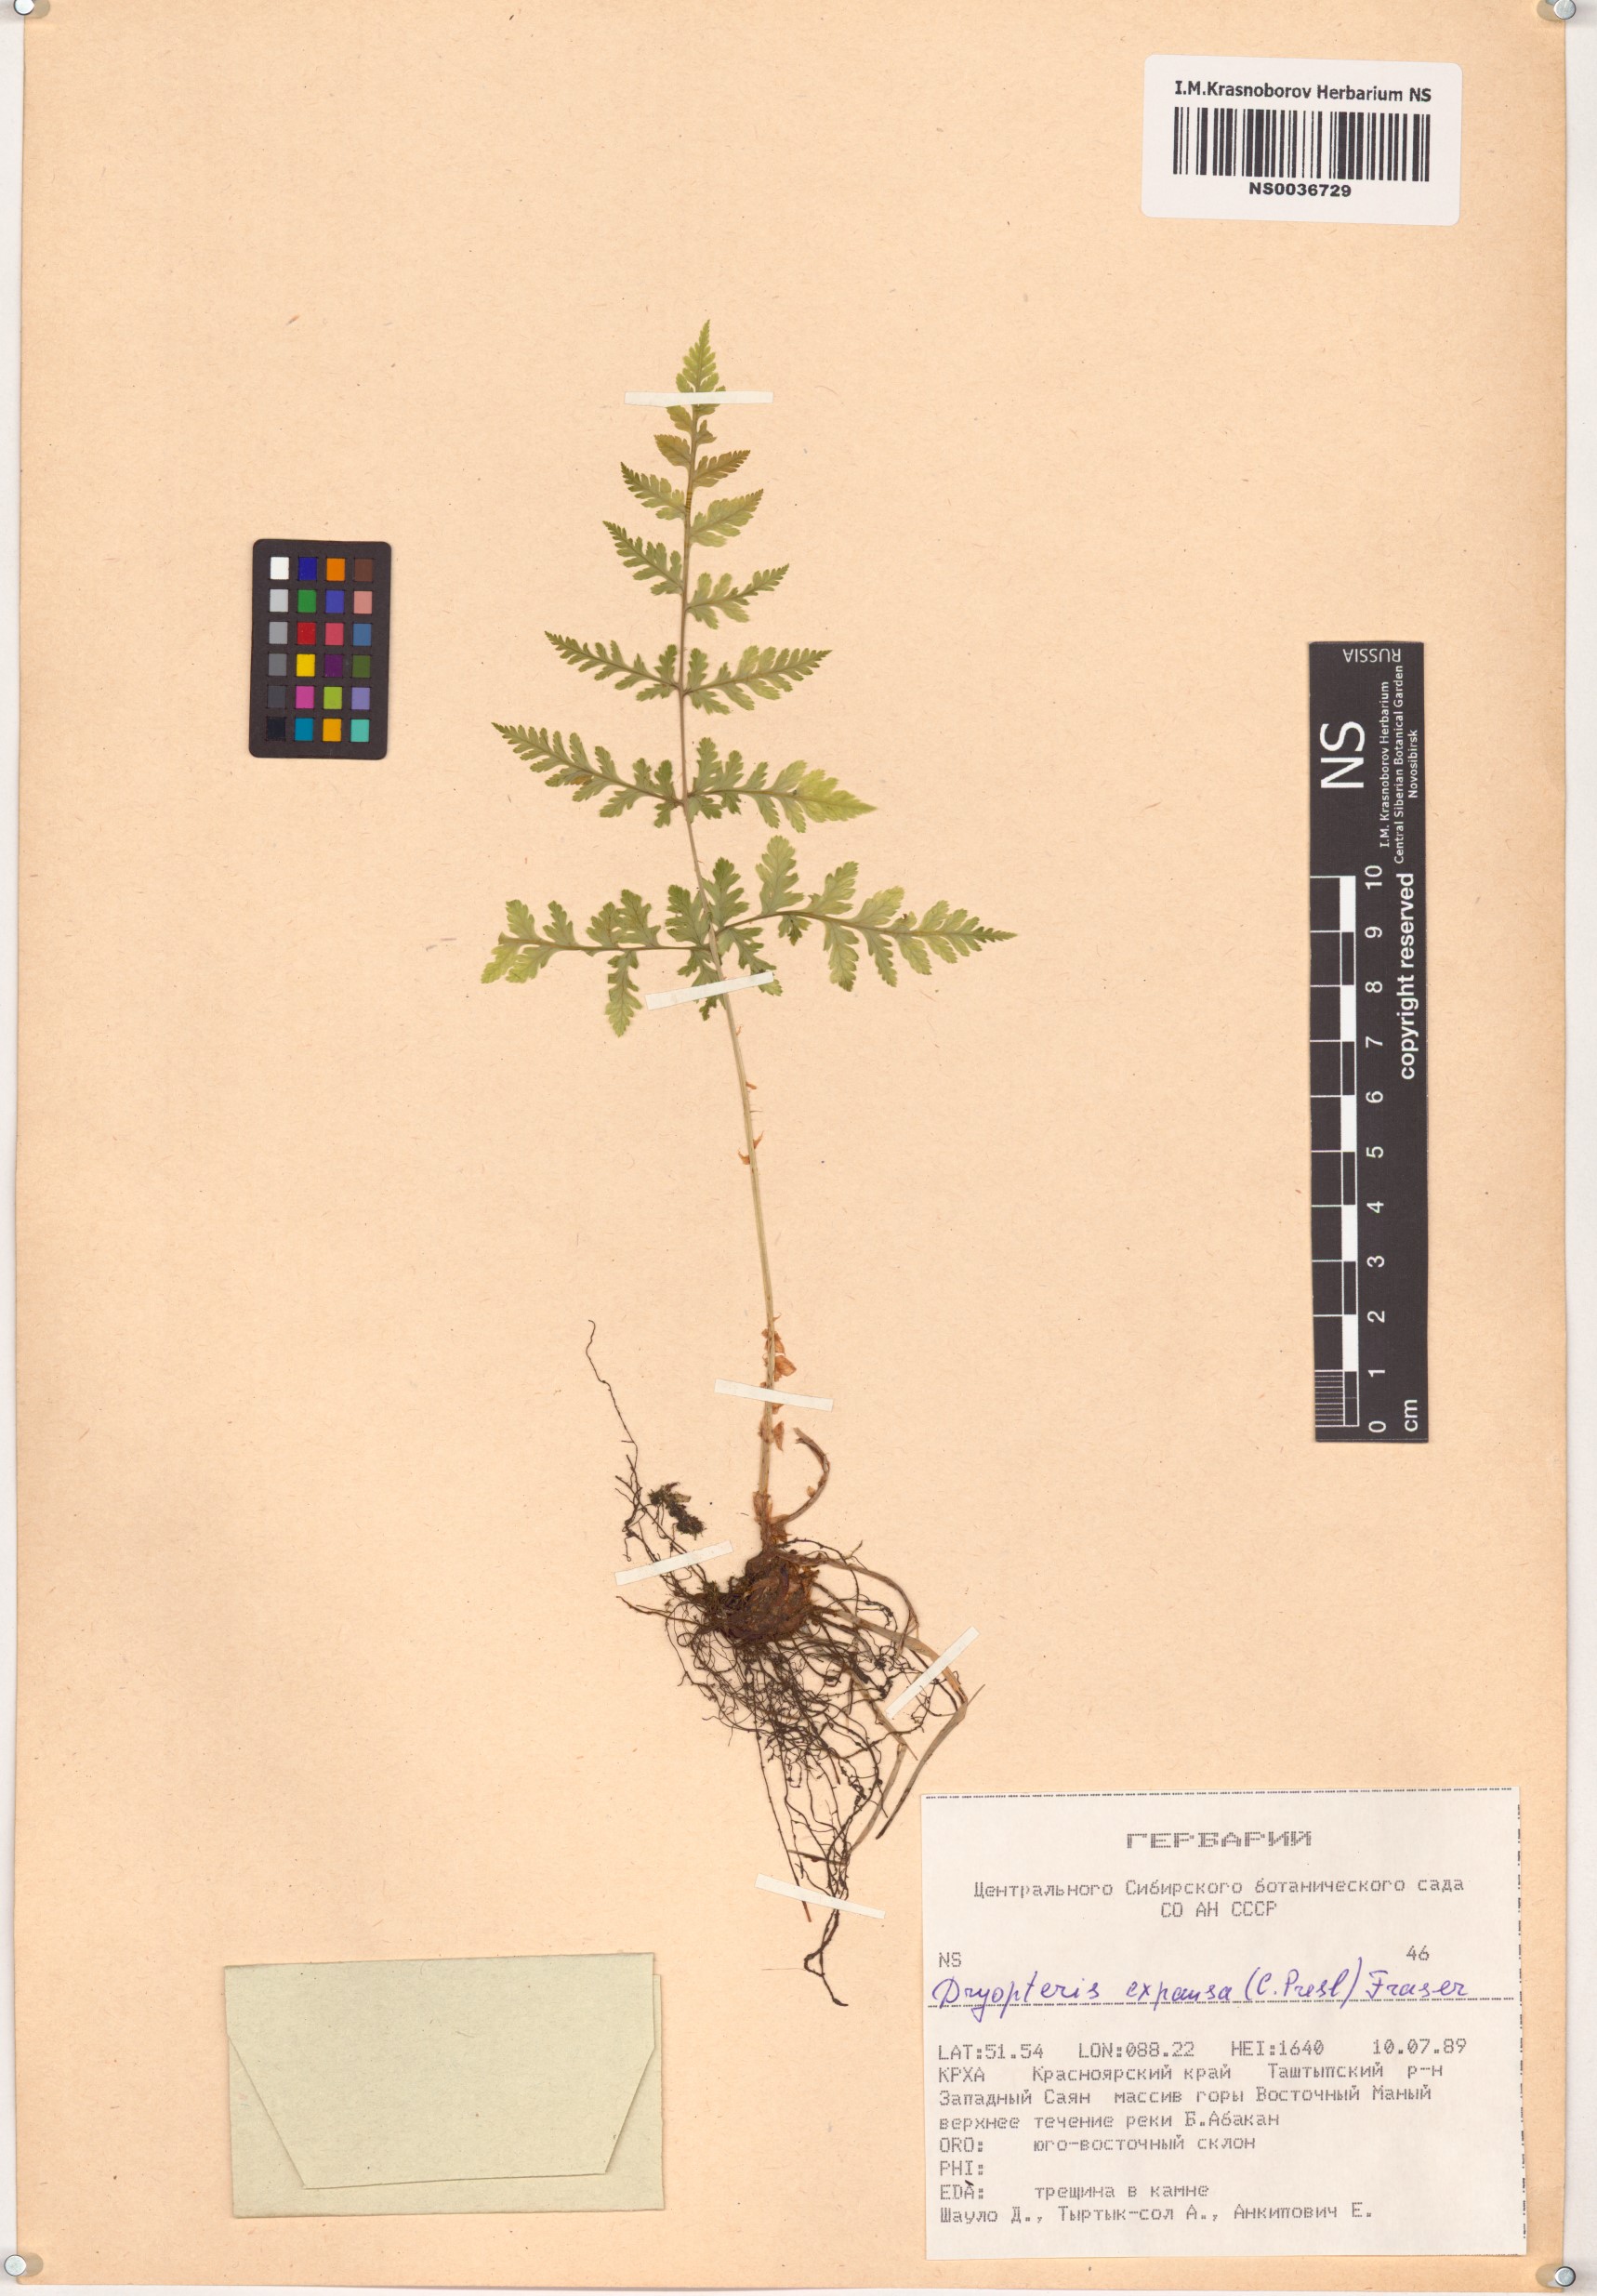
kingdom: Plantae
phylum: Tracheophyta
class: Polypodiopsida
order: Polypodiales
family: Dryopteridaceae
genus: Dryopteris
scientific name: Dryopteris expansa
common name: Northern buckler fern
